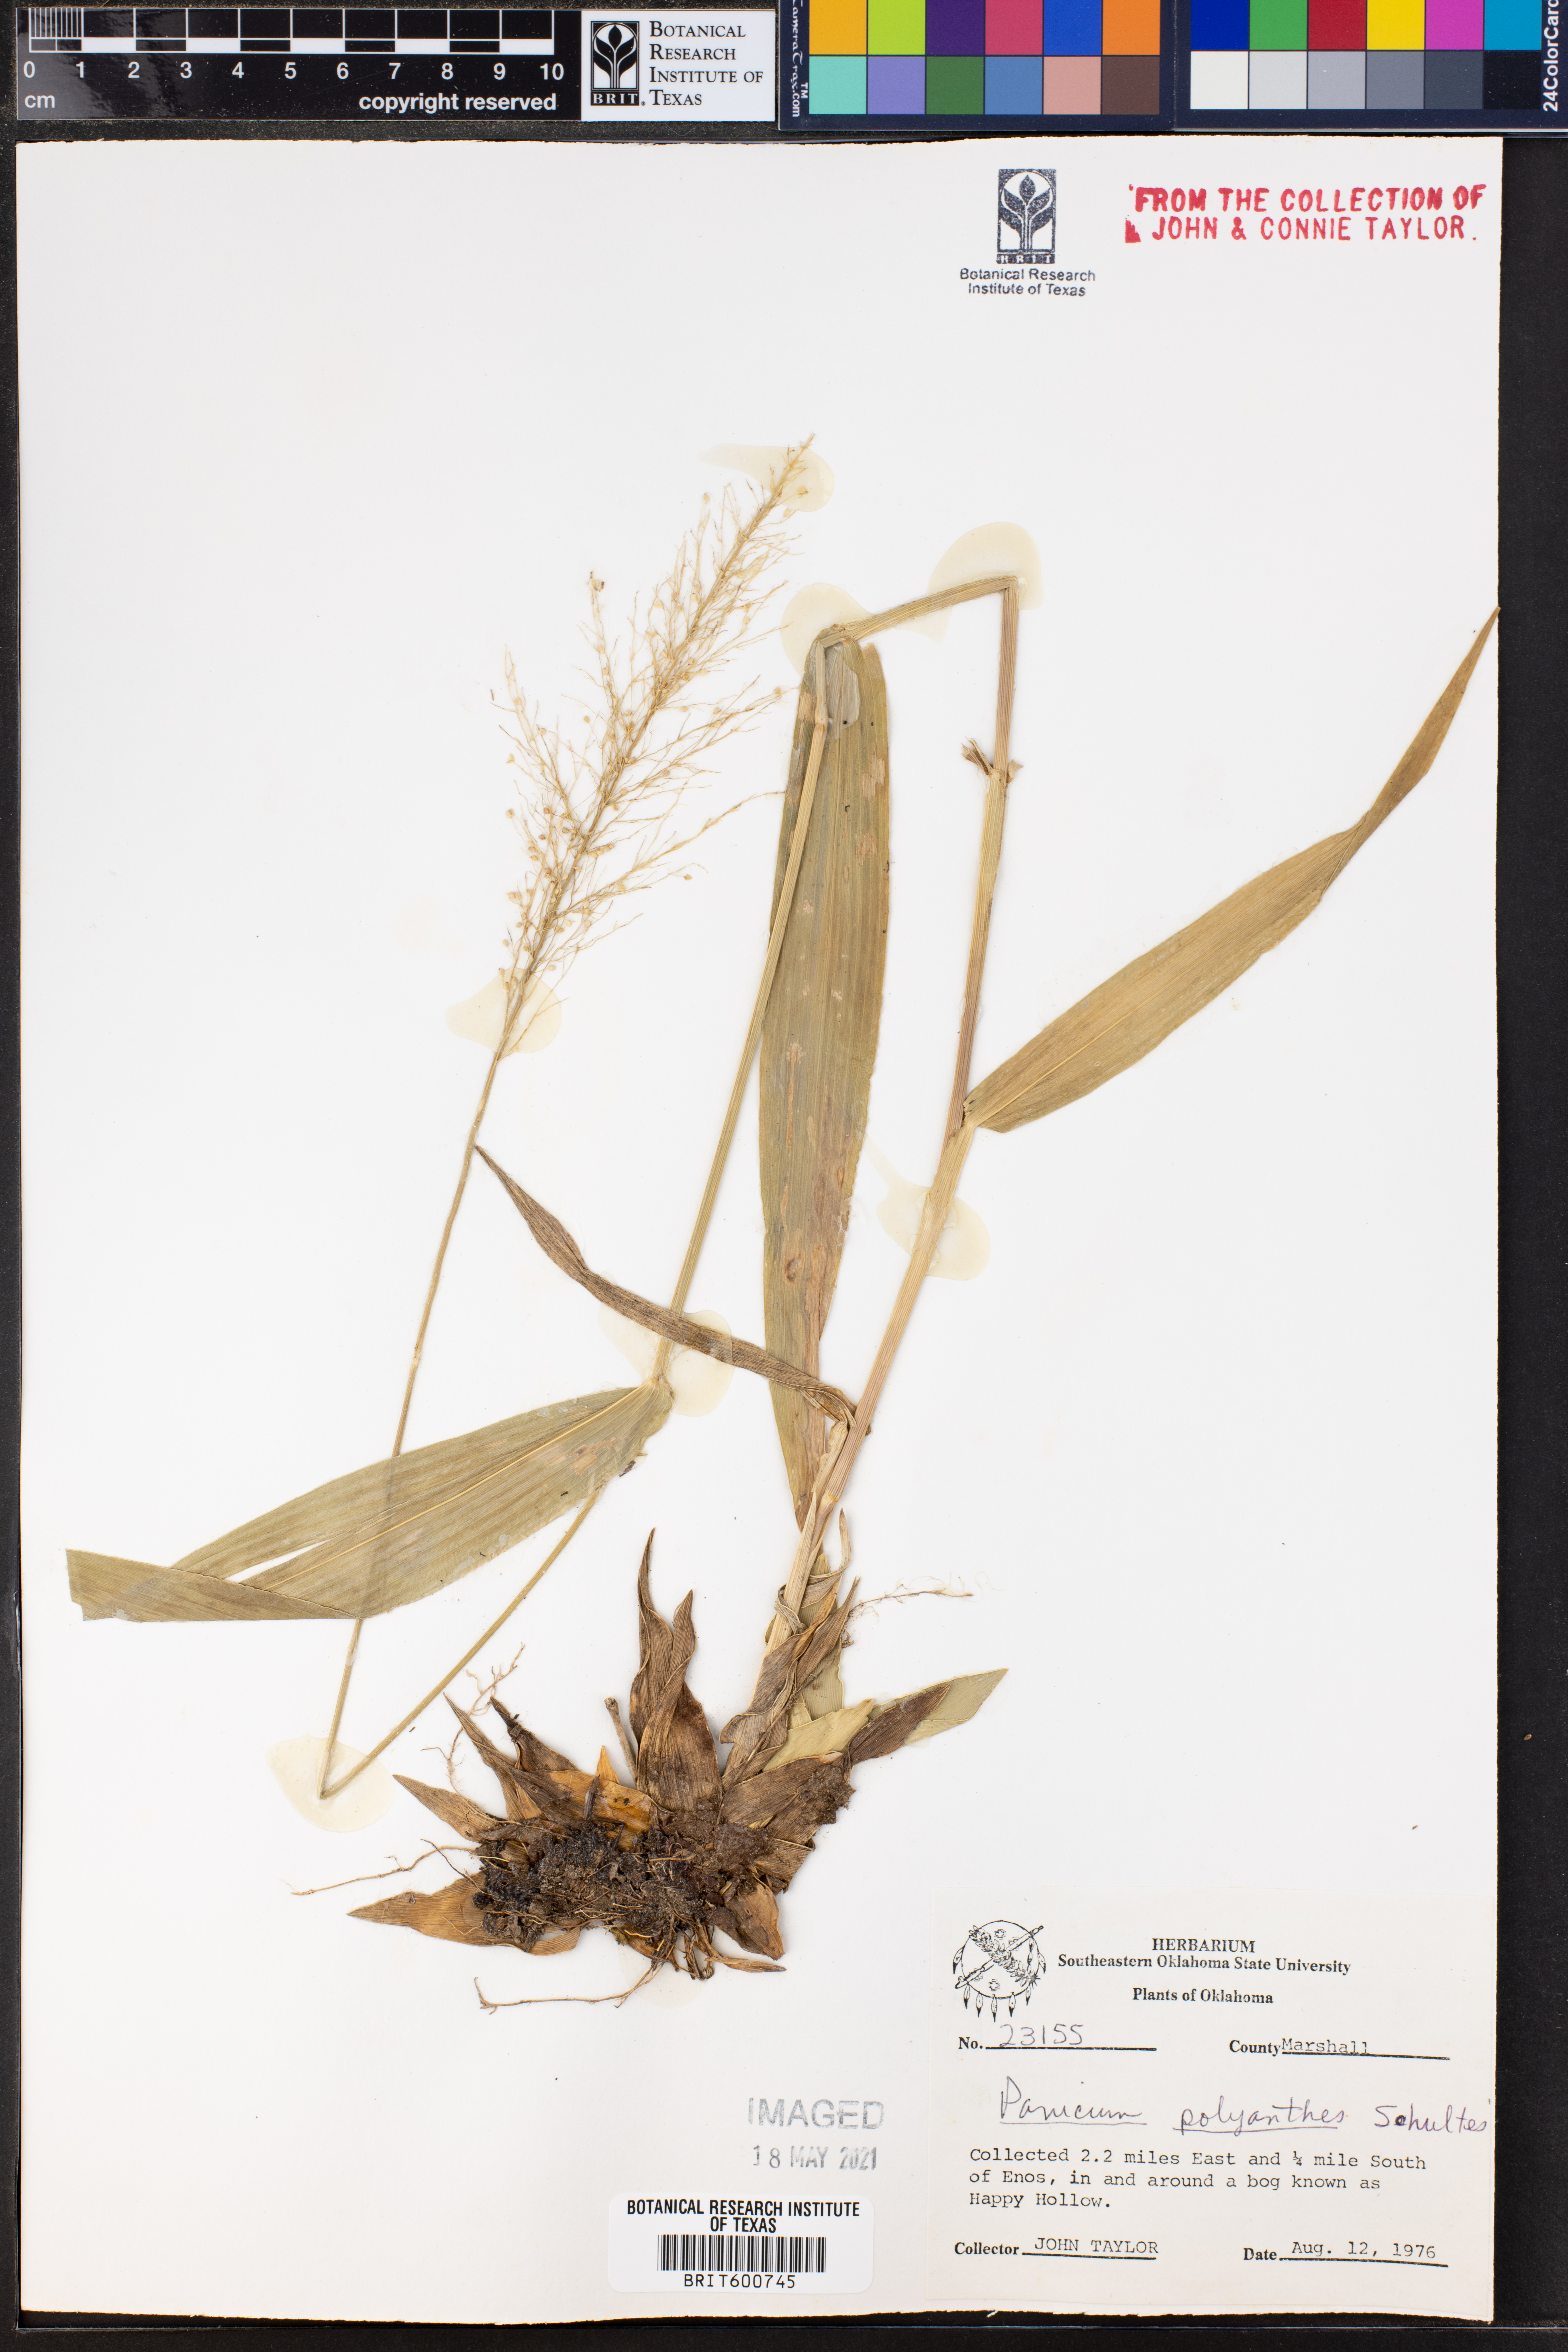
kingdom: Plantae
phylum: Tracheophyta
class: Liliopsida
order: Poales
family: Poaceae
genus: Dichanthelium
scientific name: Dichanthelium polyanthes
